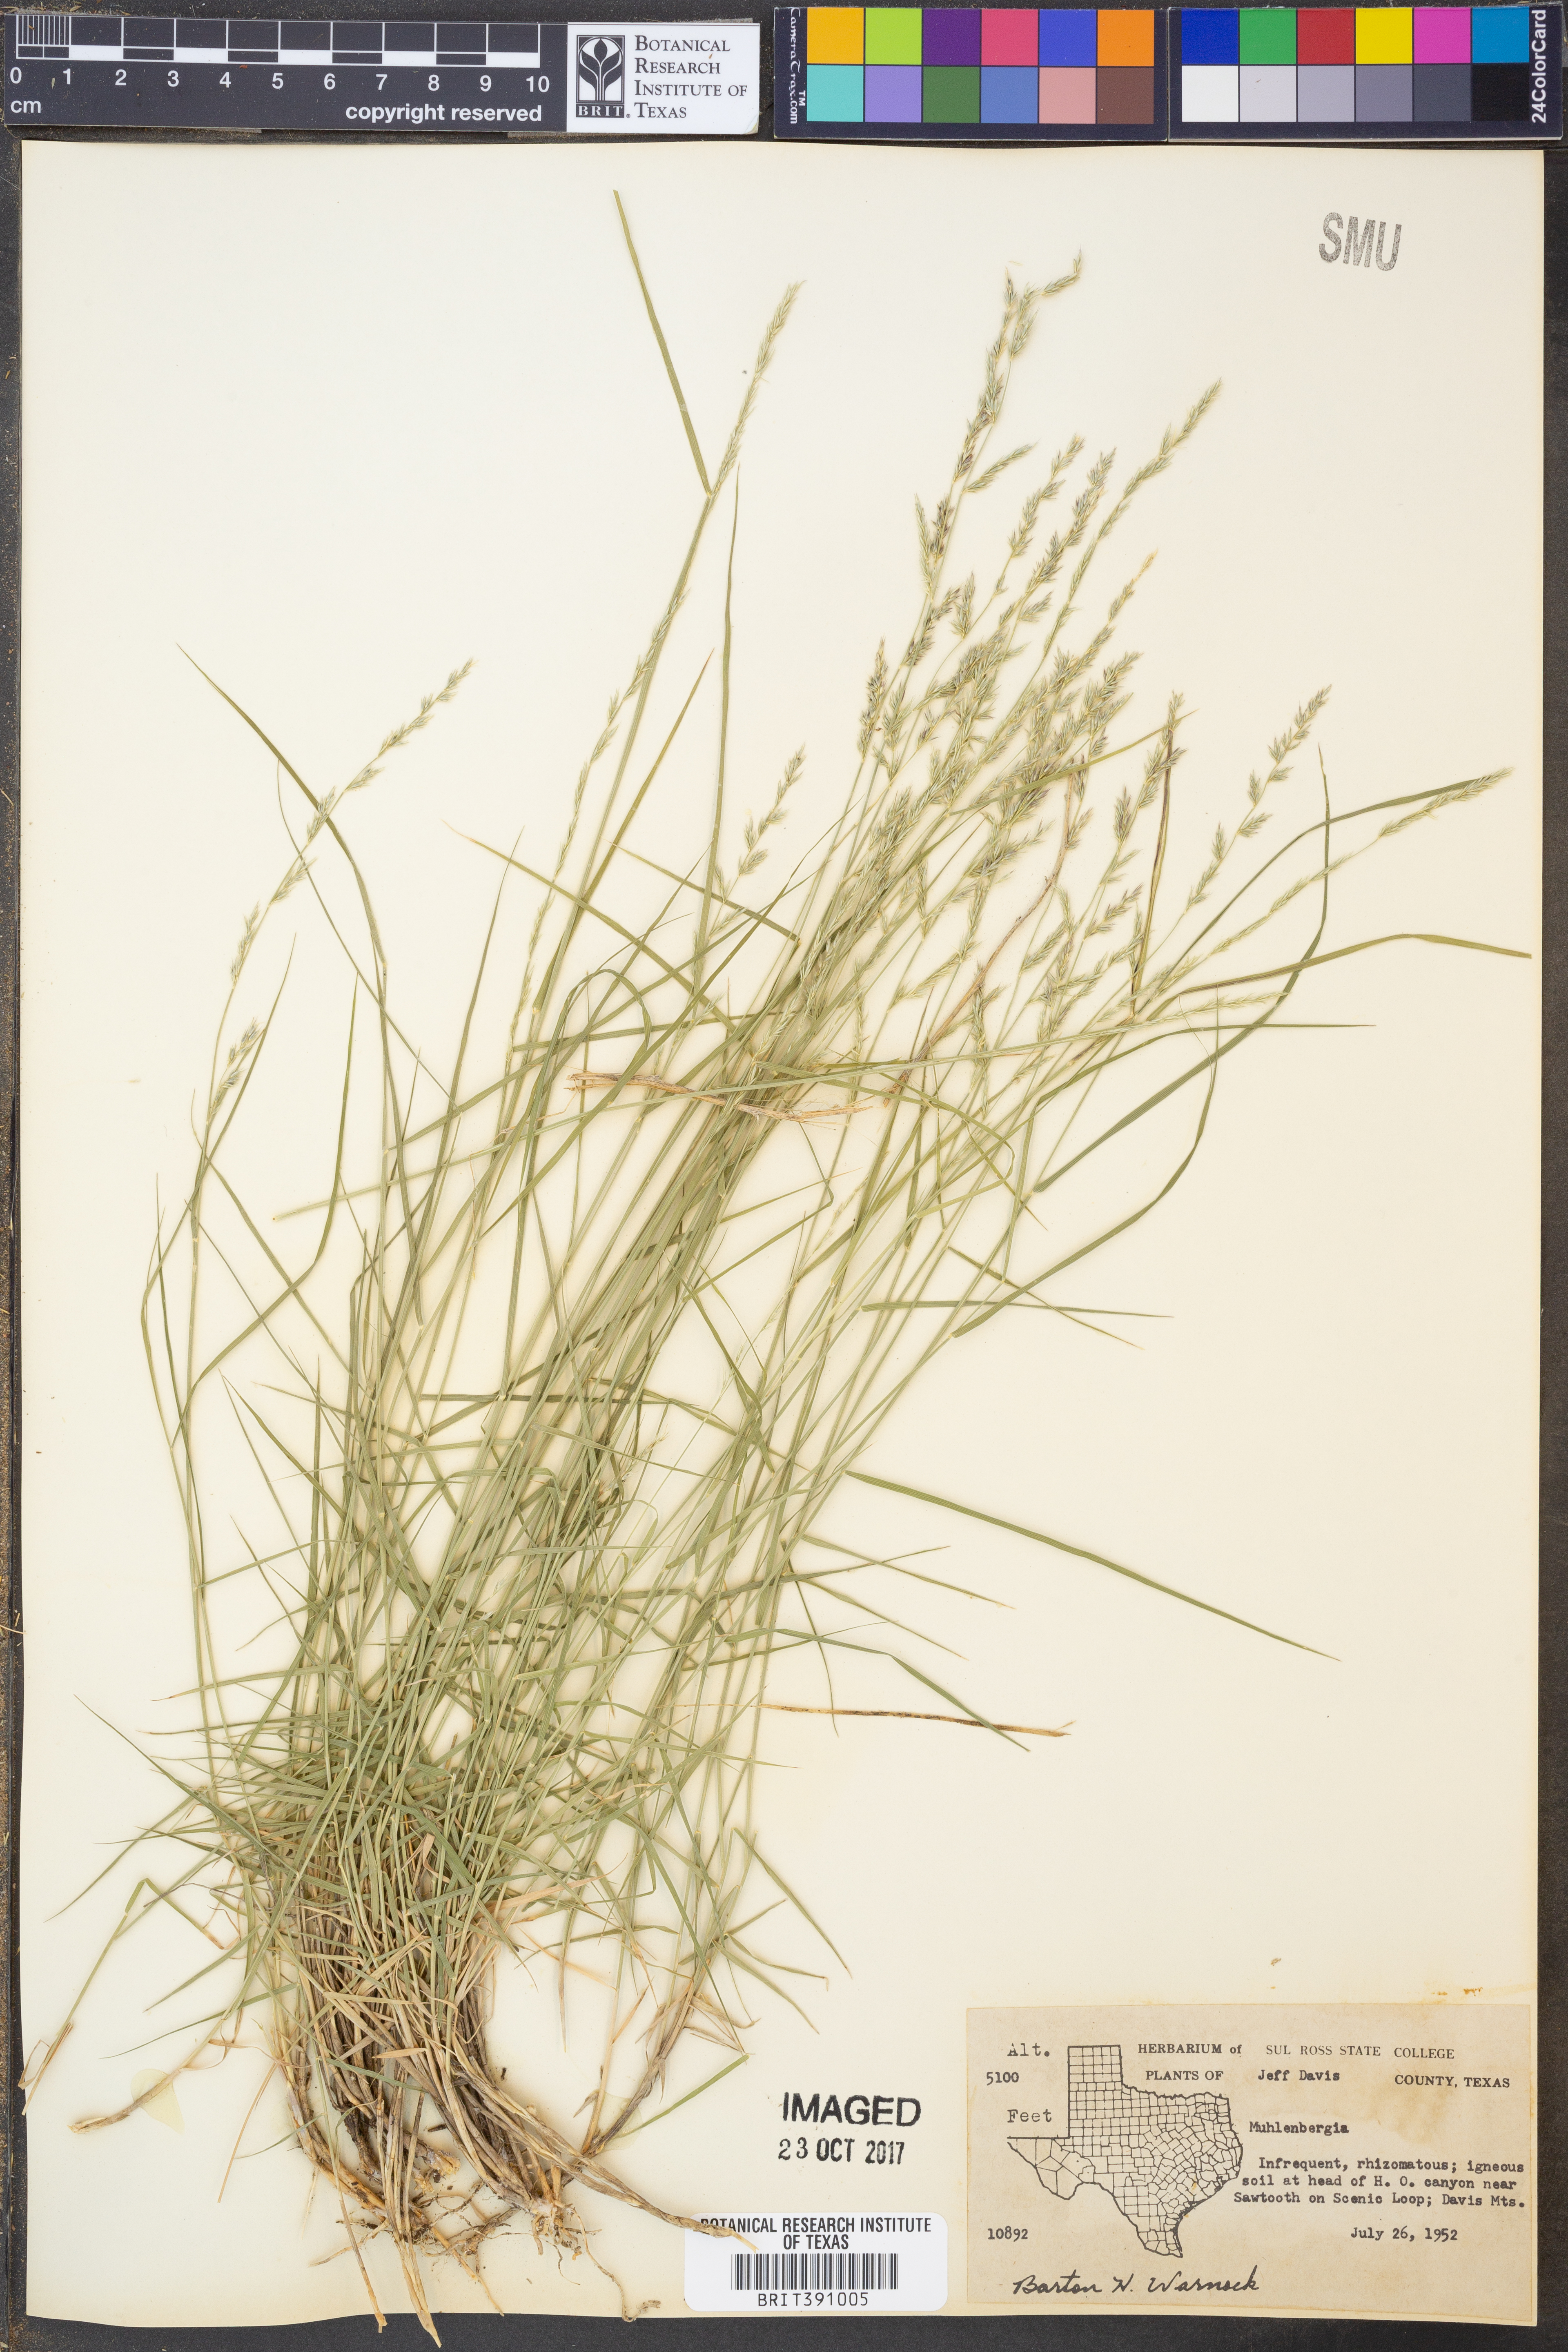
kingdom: Plantae
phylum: Tracheophyta
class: Liliopsida
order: Poales
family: Poaceae
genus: Muhlenbergia
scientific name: Muhlenbergia
